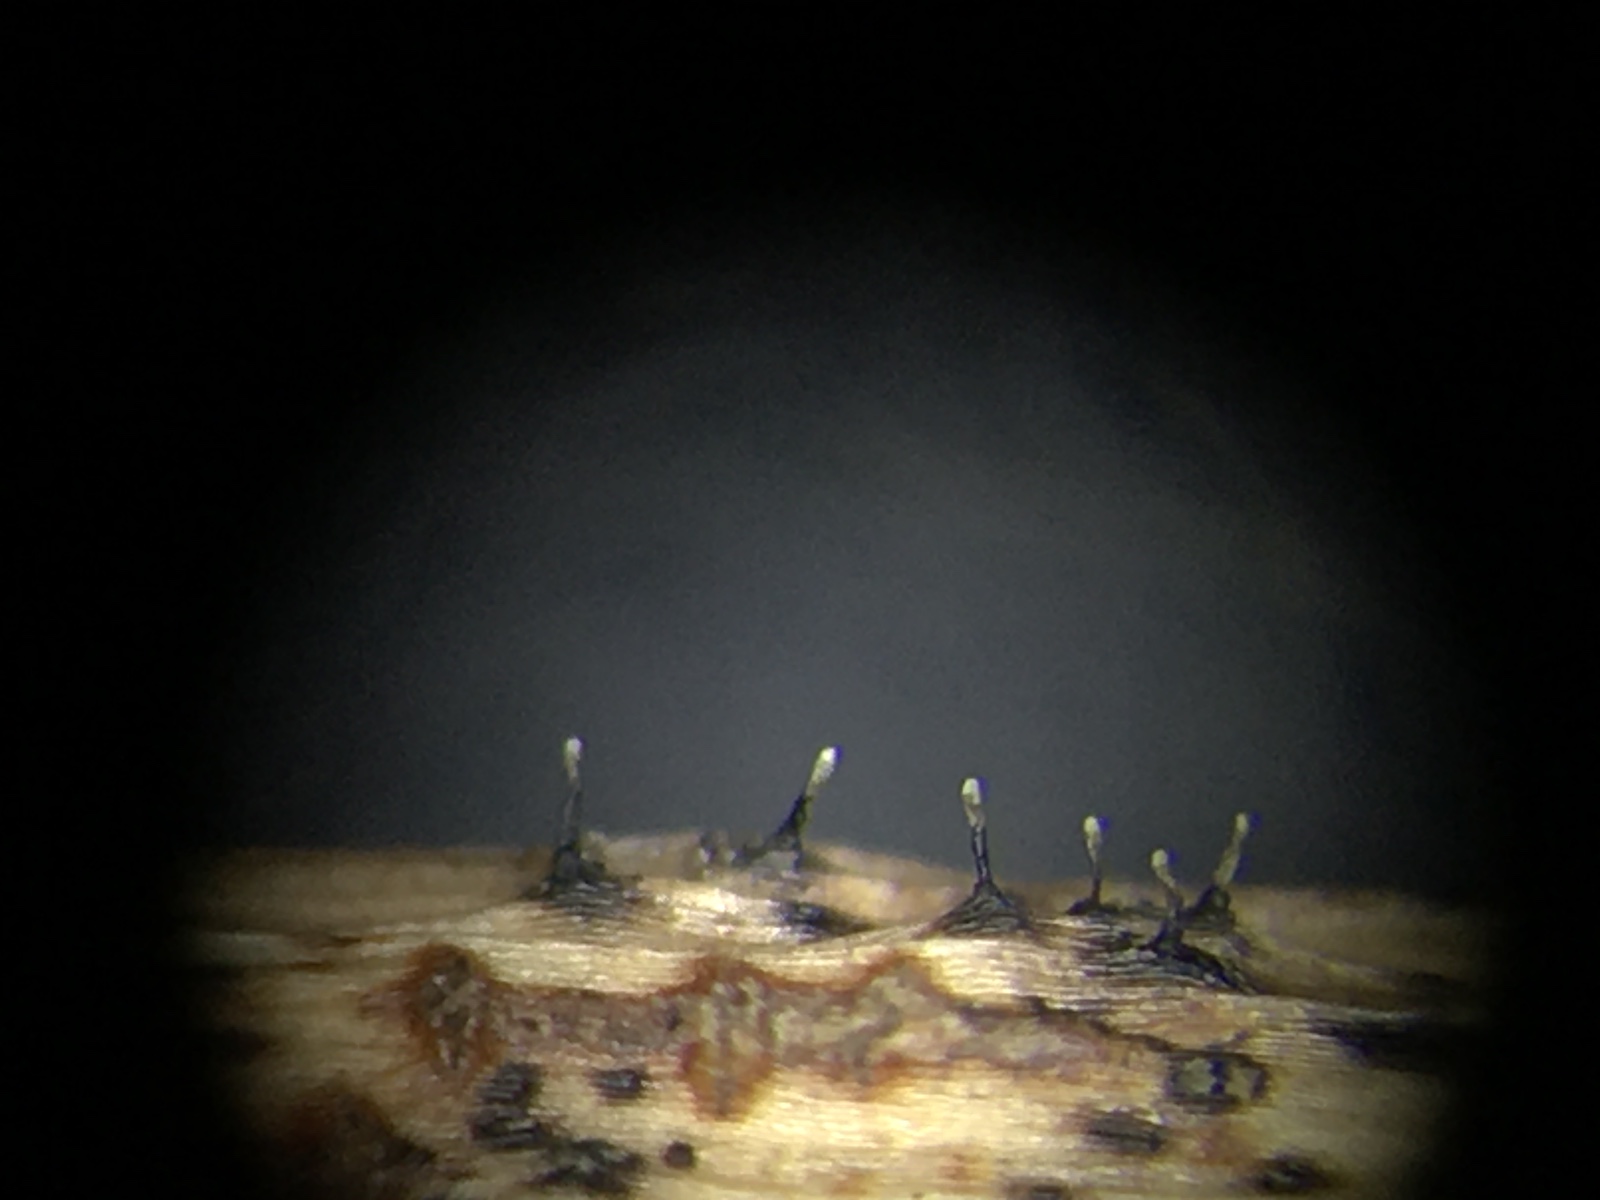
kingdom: Fungi
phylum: Ascomycota
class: Sordariomycetes
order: Diaporthales
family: Gnomoniaceae
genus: Apiognomonia
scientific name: Apiognomonia hystrix
